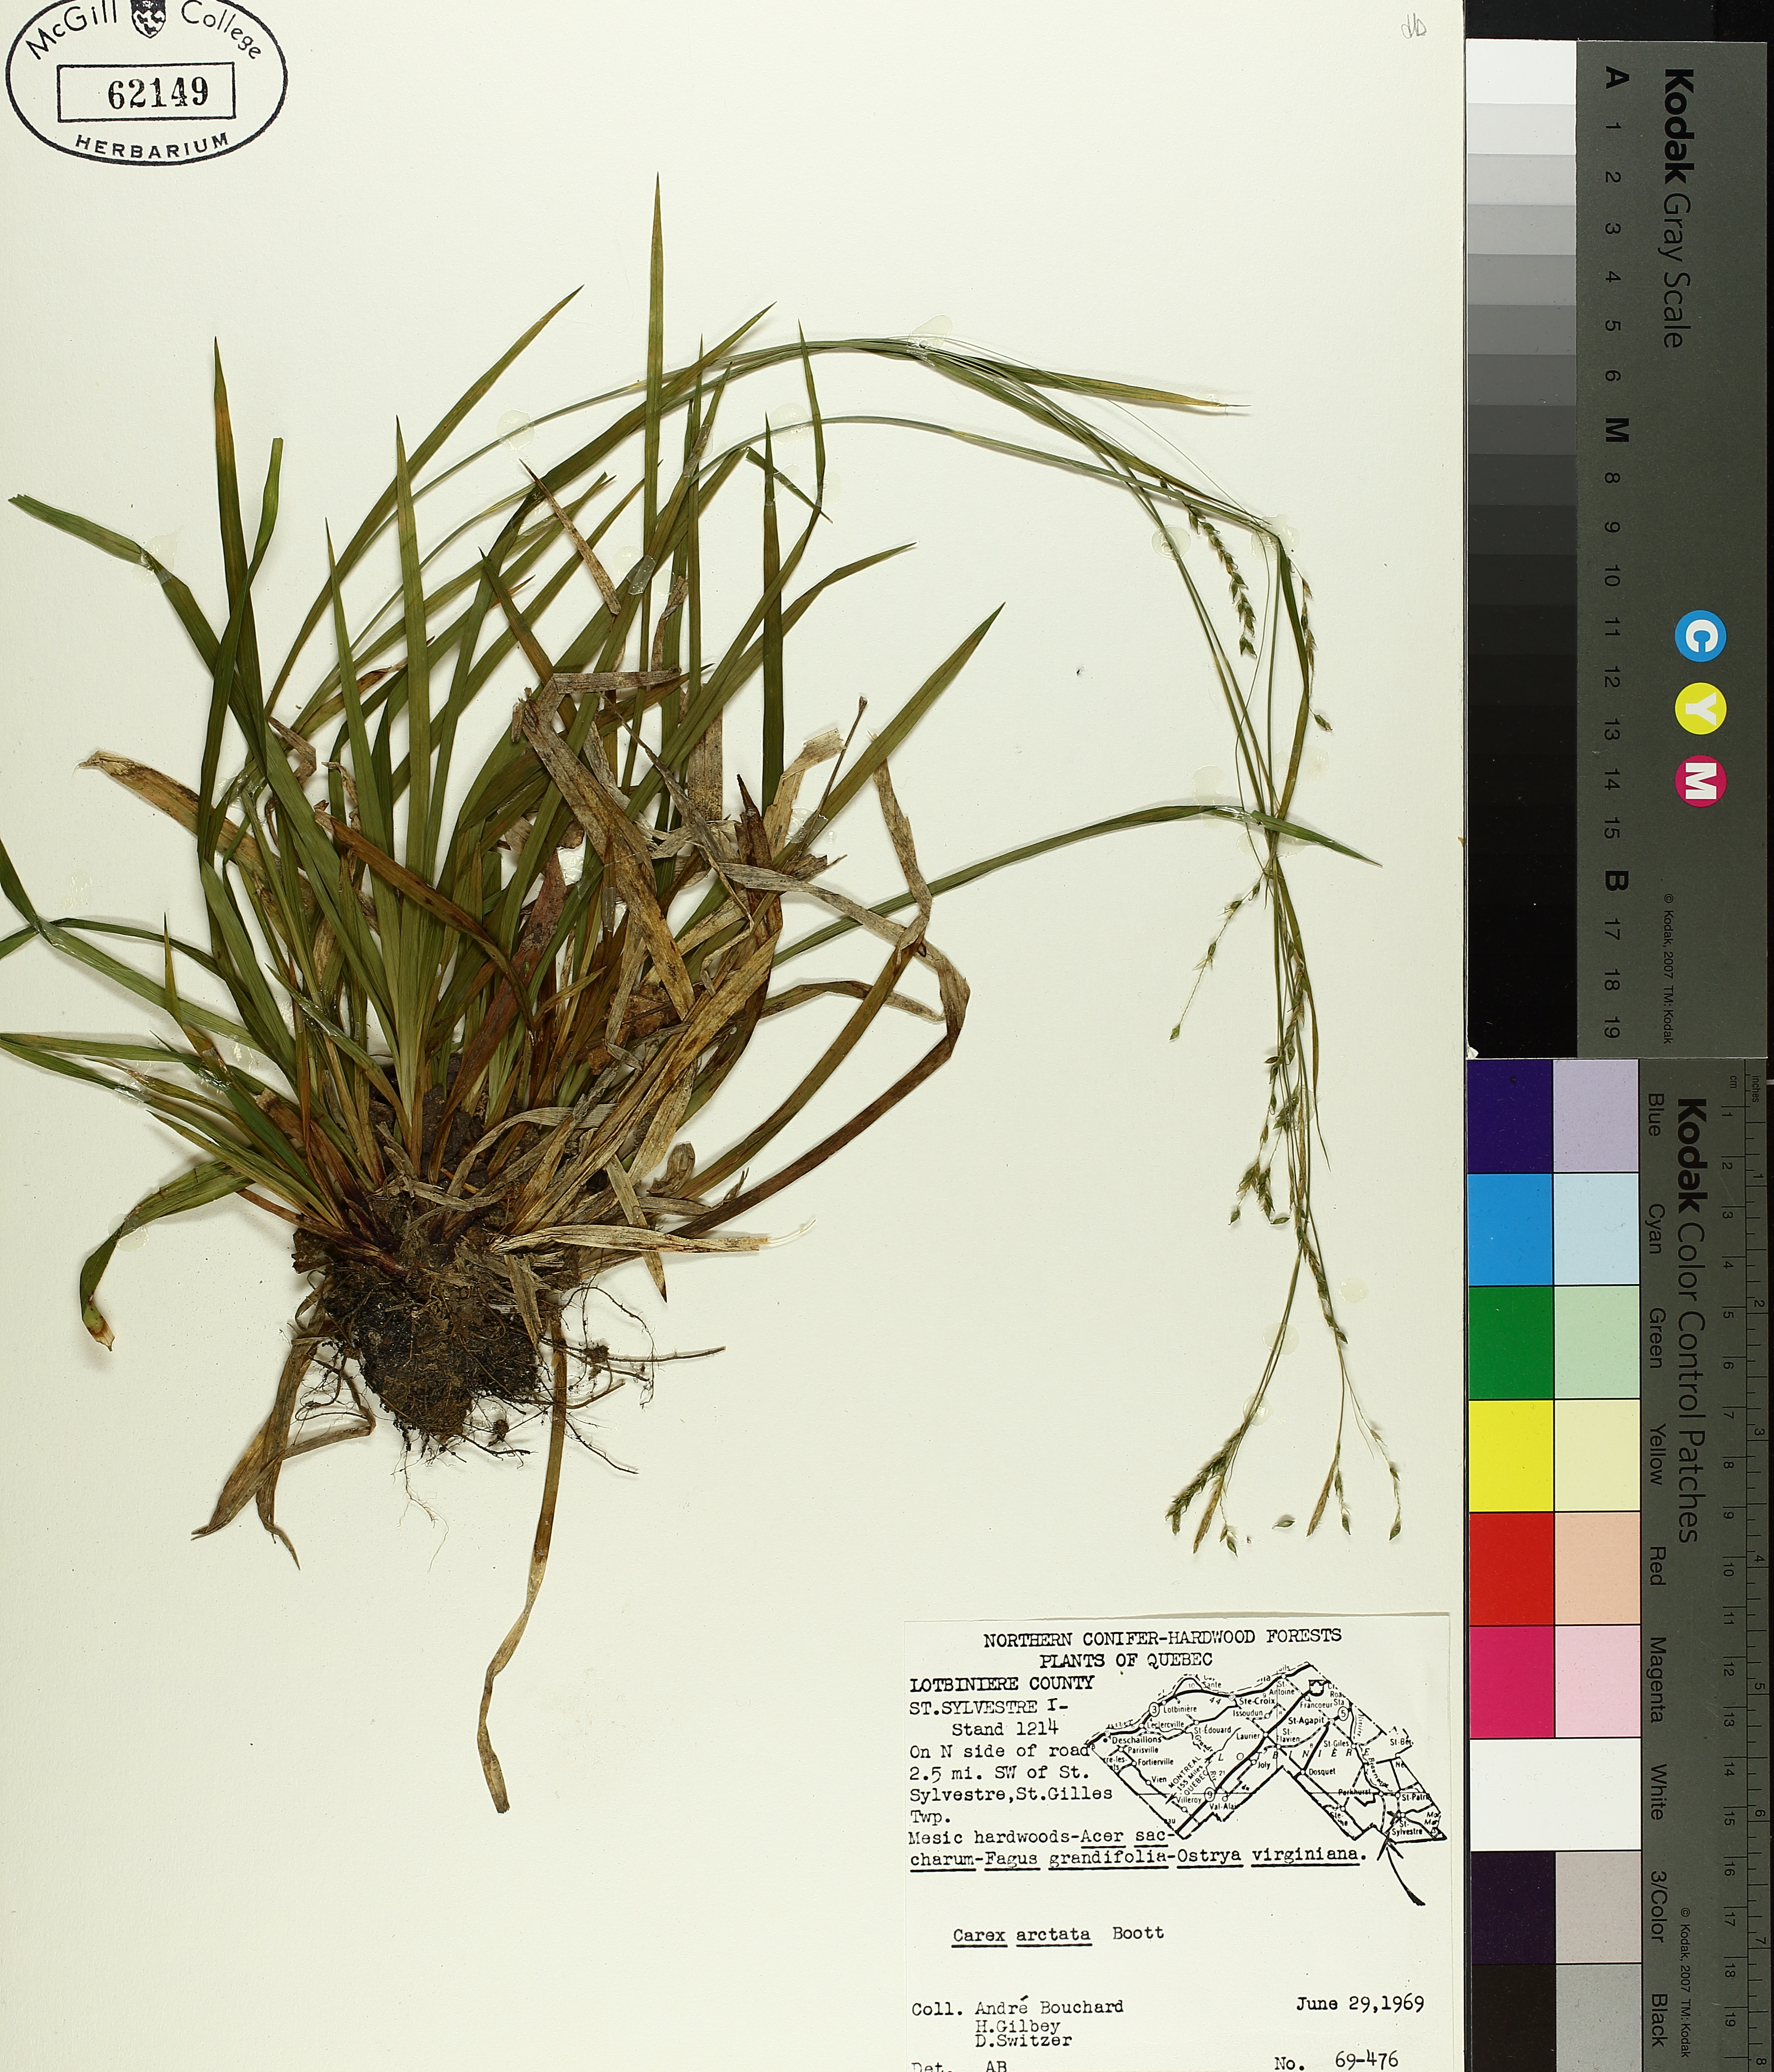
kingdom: Plantae
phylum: Tracheophyta
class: Liliopsida
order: Poales
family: Cyperaceae
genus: Carex
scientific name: Carex arctata
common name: Black sedge
